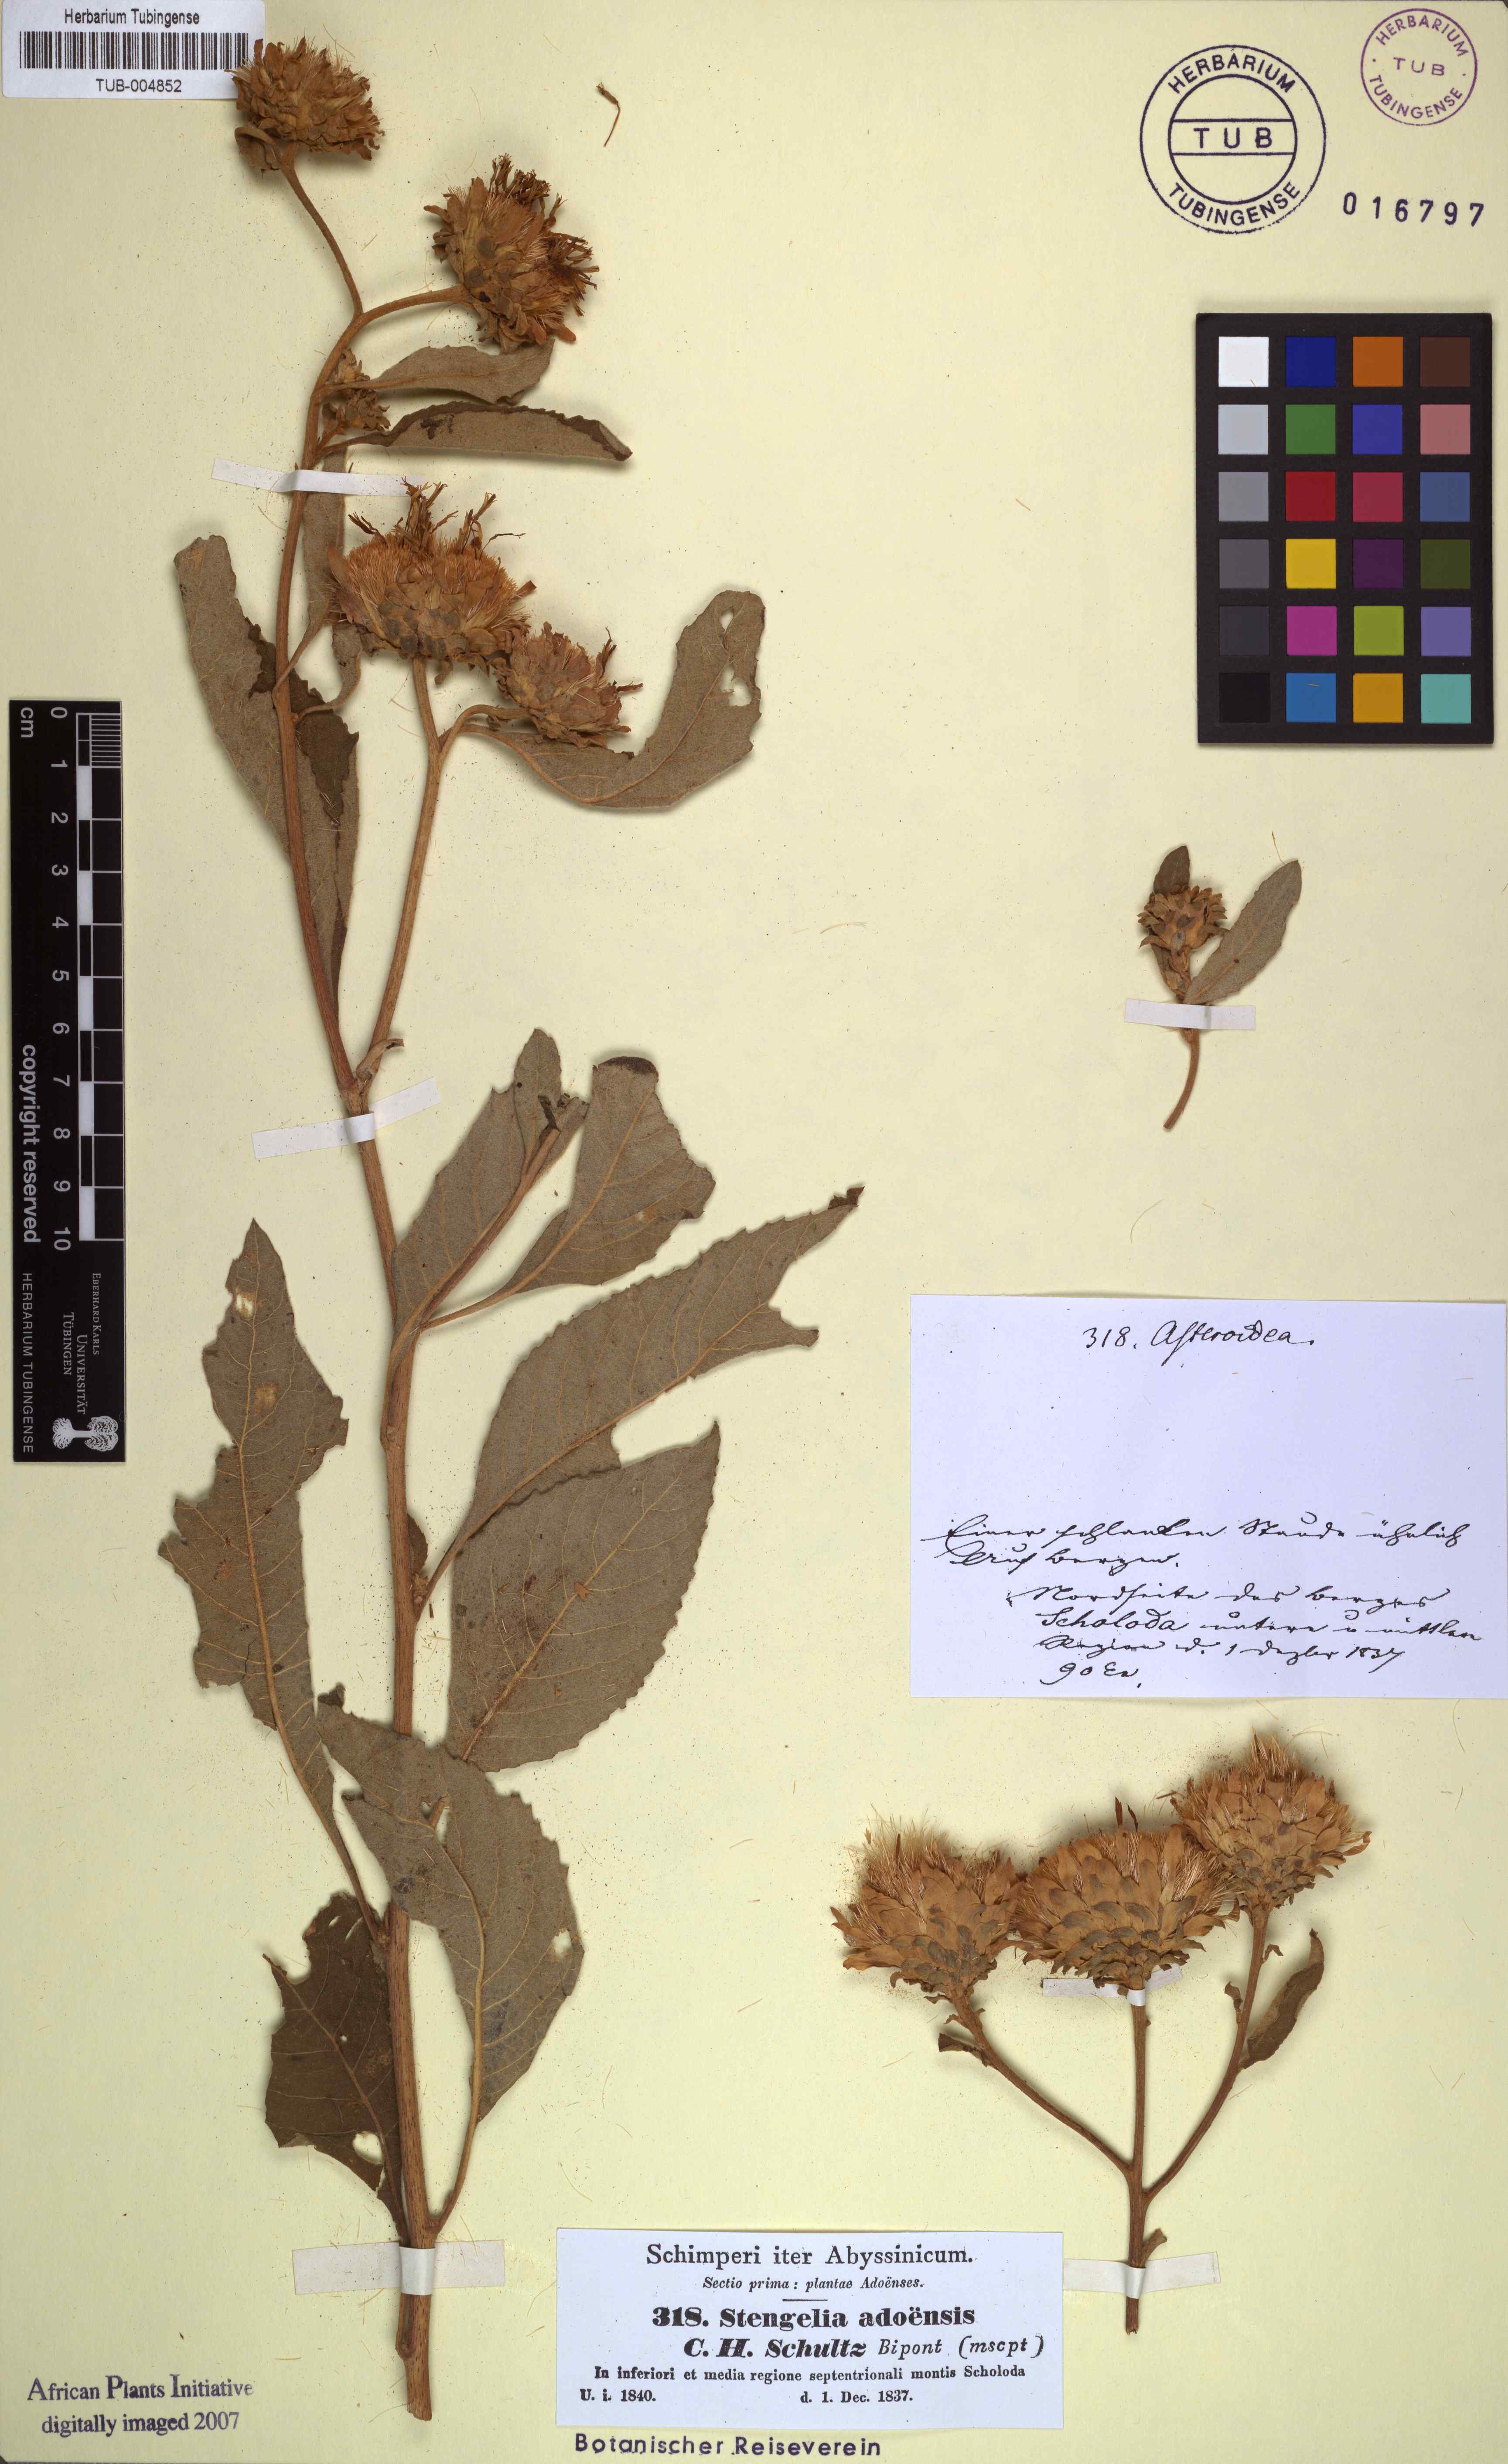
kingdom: Plantae
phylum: Tracheophyta
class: Magnoliopsida
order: Asterales
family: Asteraceae
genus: Baccharoides
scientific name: Baccharoides adoensis
